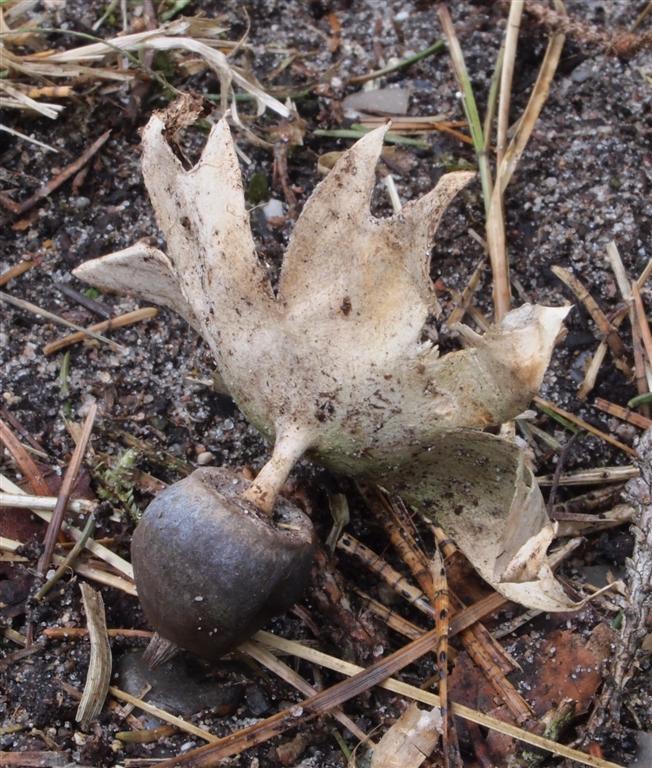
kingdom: Fungi
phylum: Basidiomycota
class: Agaricomycetes
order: Geastrales
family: Geastraceae
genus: Geastrum
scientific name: Geastrum pectinatum
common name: stilket stjernebold
